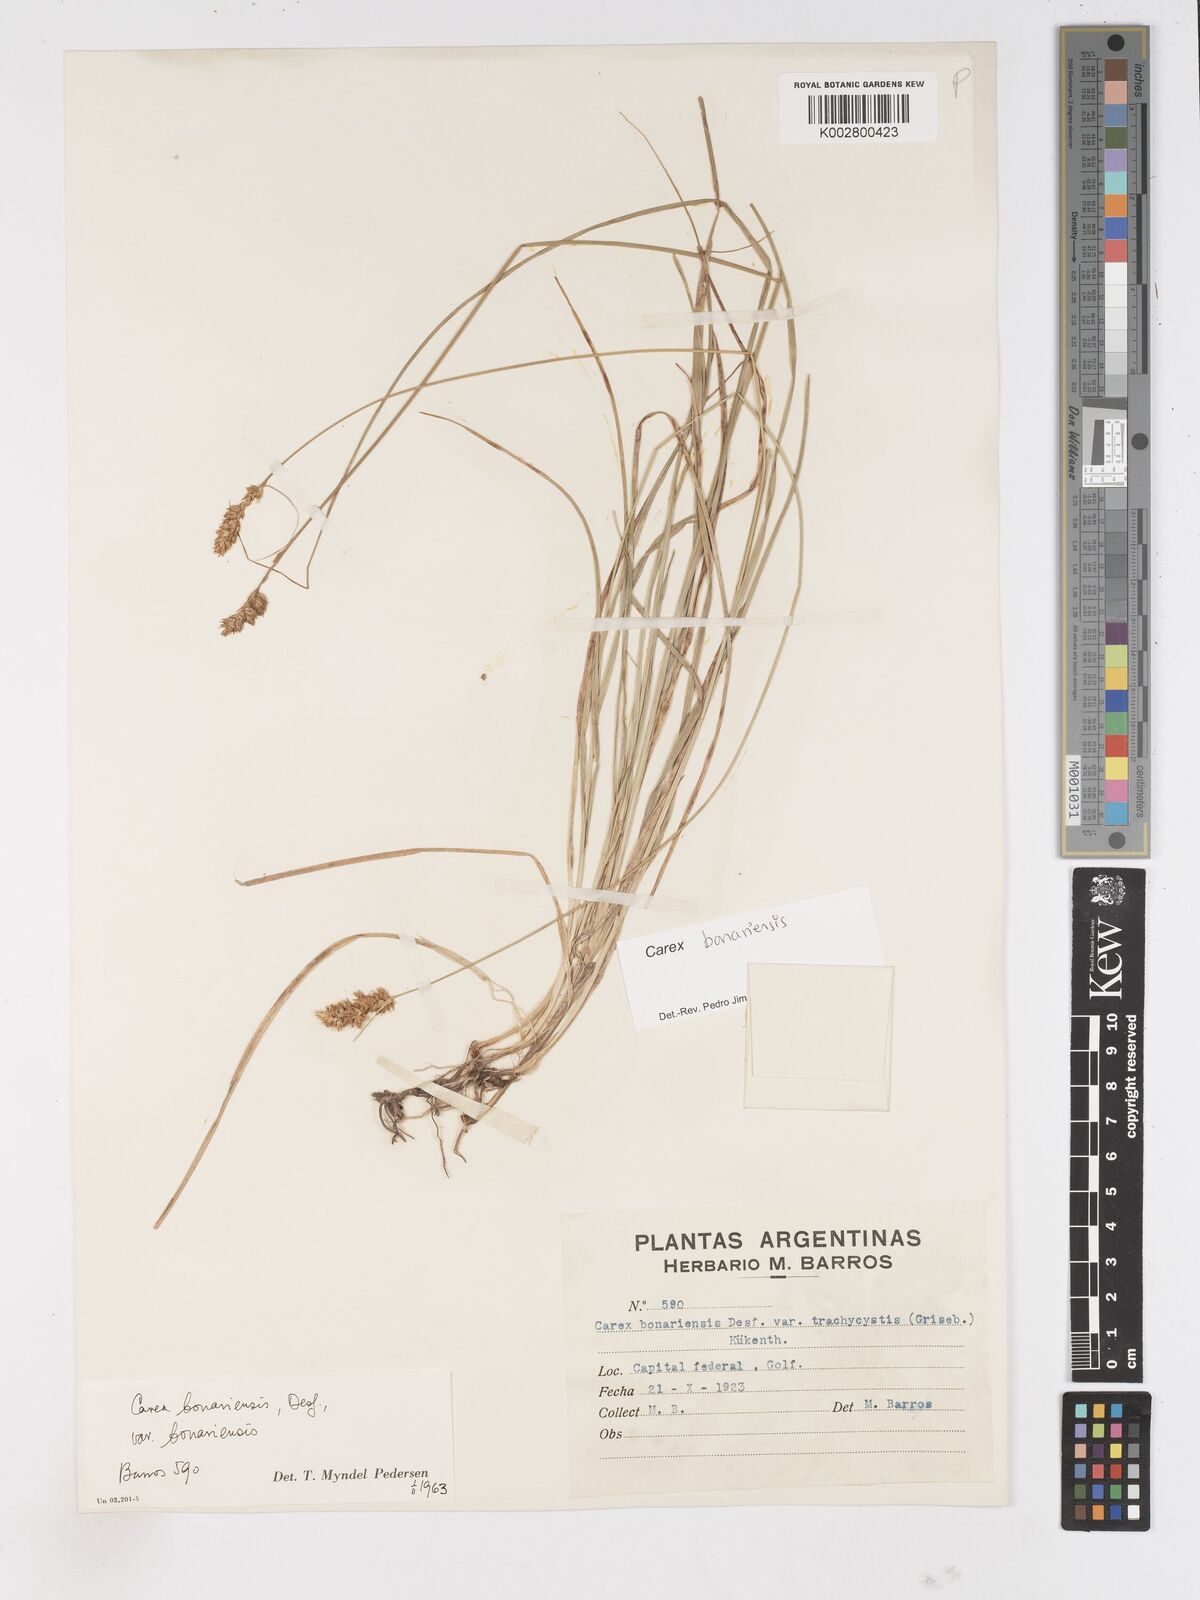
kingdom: Plantae
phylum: Tracheophyta
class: Liliopsida
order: Poales
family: Cyperaceae
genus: Carex
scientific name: Carex bonariensis
